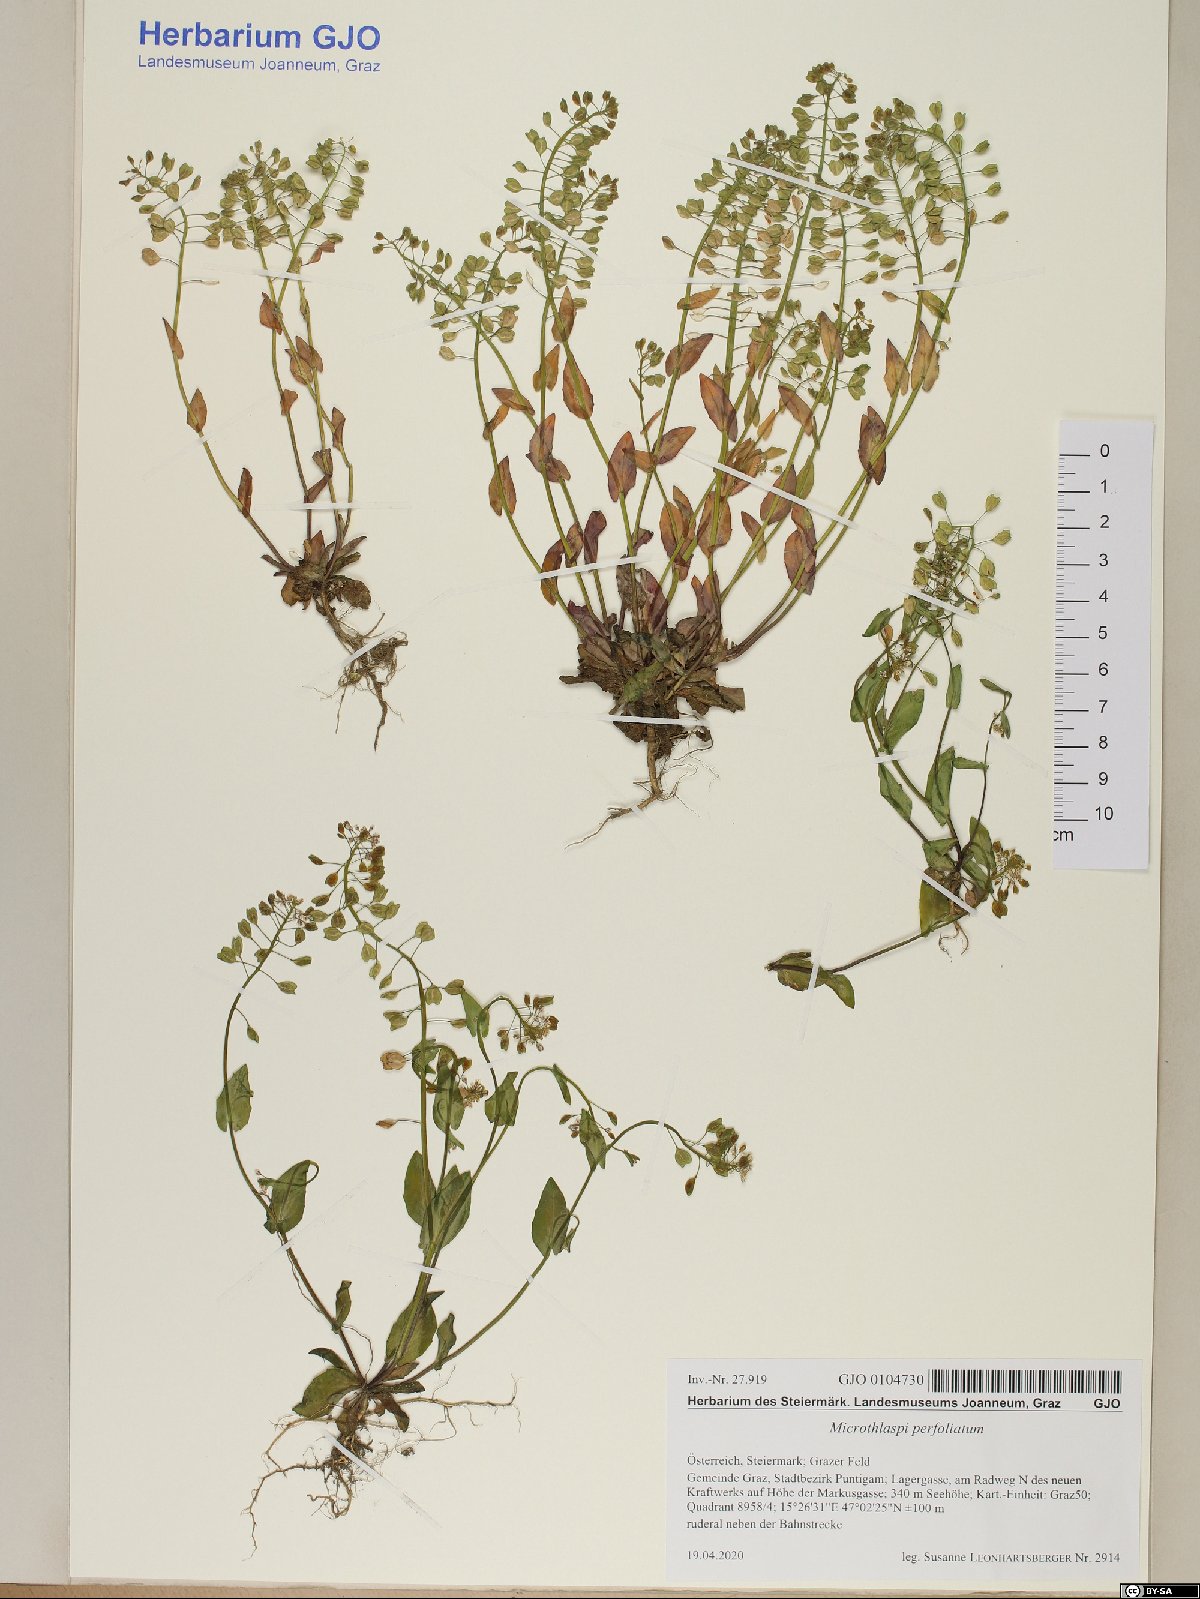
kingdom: Plantae
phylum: Tracheophyta
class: Magnoliopsida
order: Brassicales
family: Brassicaceae
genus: Noccaea
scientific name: Noccaea perfoliata
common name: Perfoliate pennycress
